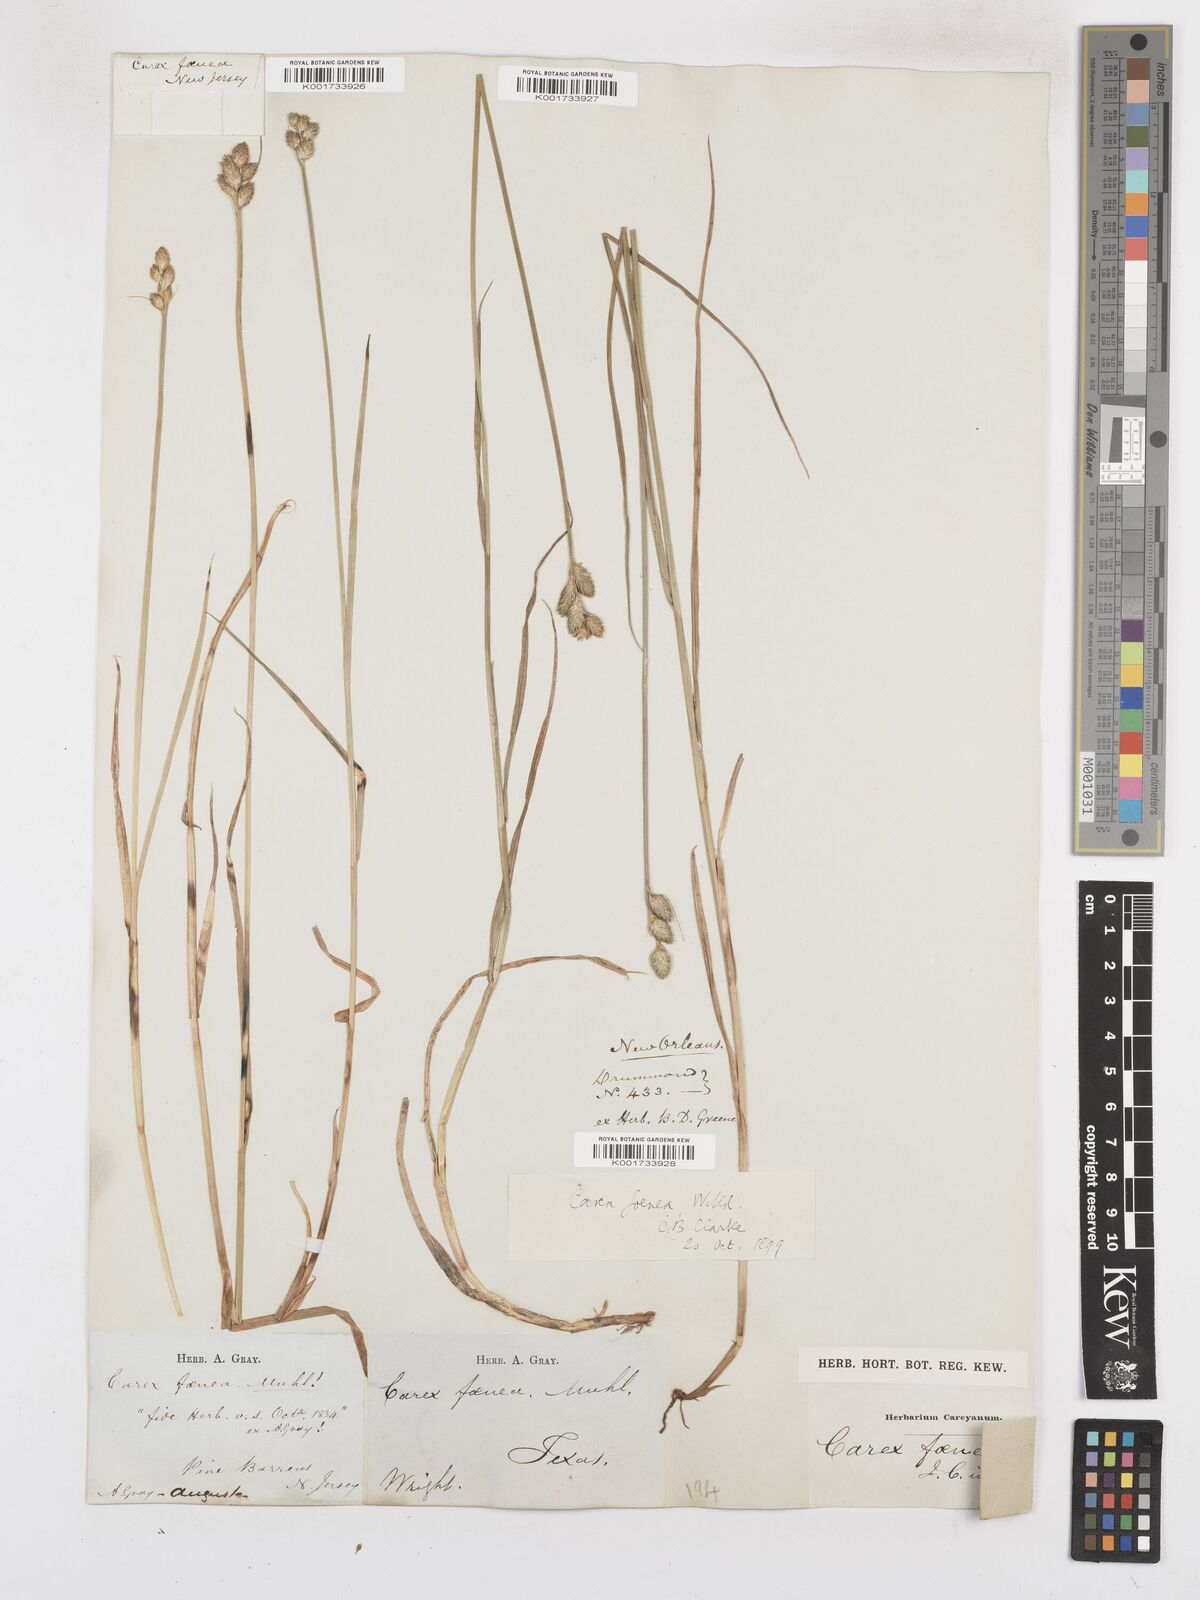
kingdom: Plantae
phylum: Tracheophyta
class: Liliopsida
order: Poales
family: Cyperaceae
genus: Carex
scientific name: Carex argyrantha
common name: Silvery-flowered sedge
